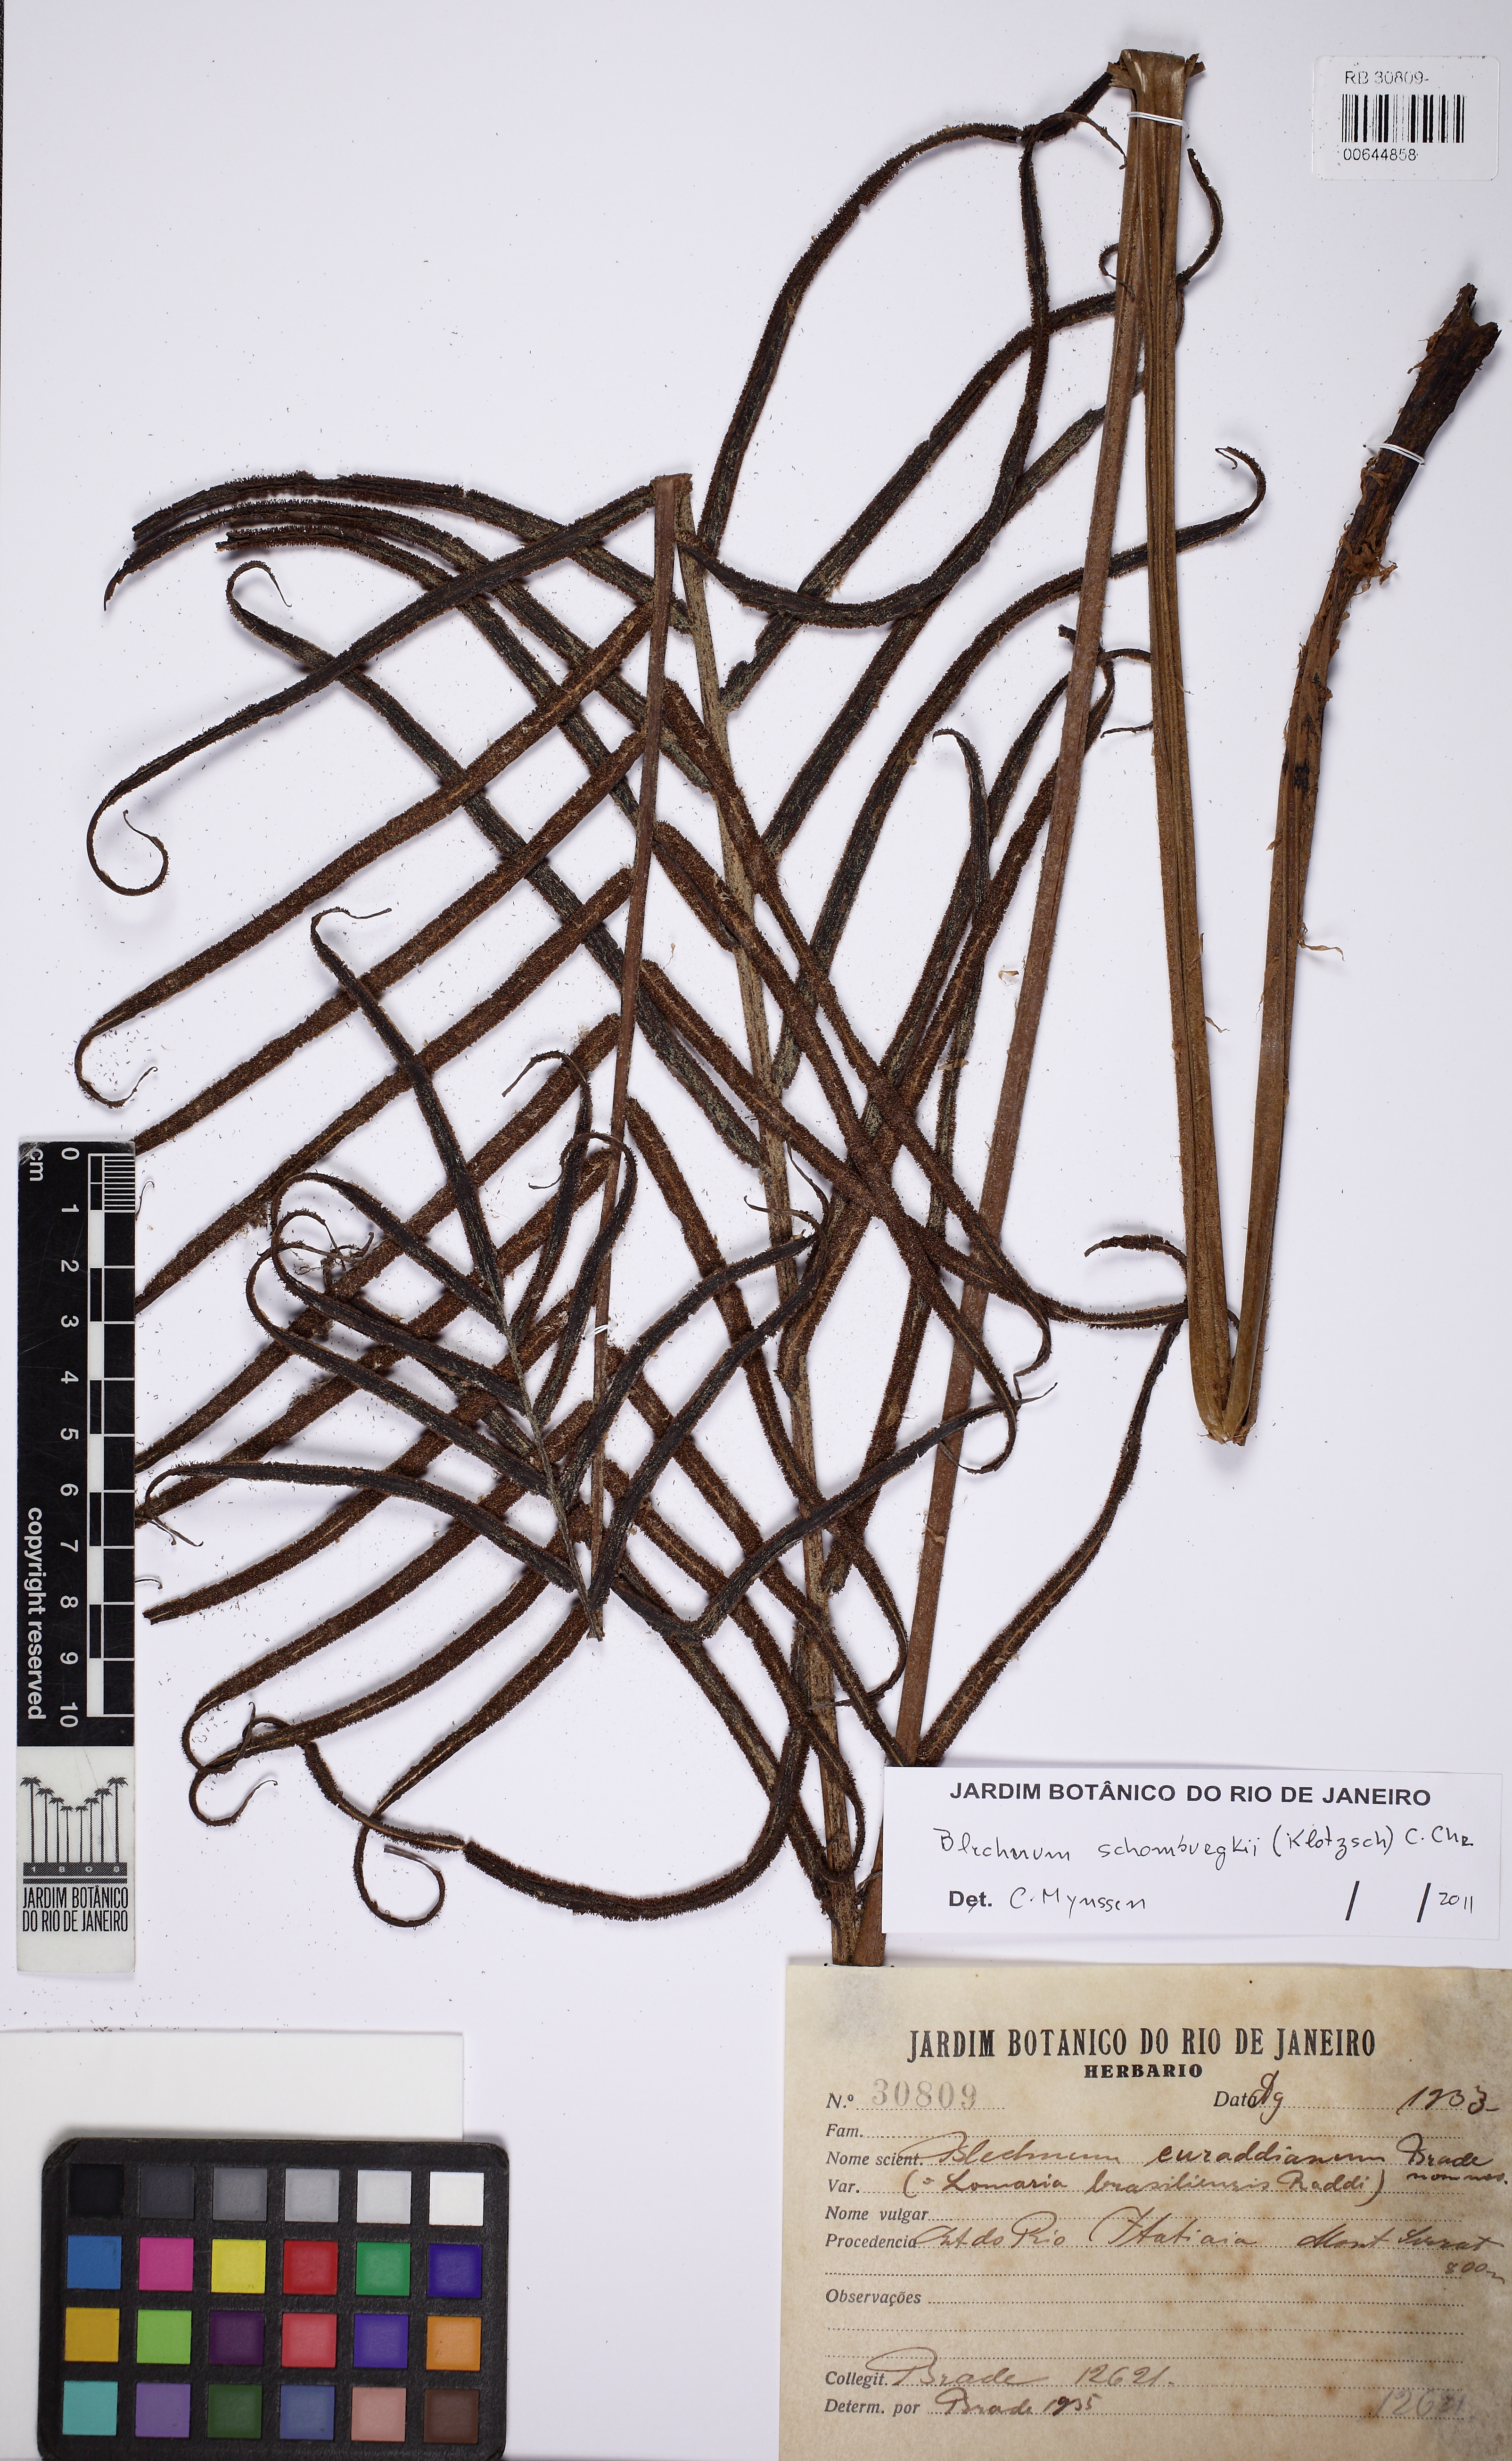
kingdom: Plantae
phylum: Tracheophyta
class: Polypodiopsida
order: Polypodiales
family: Blechnaceae
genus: Parablechnum
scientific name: Parablechnum cordatum
